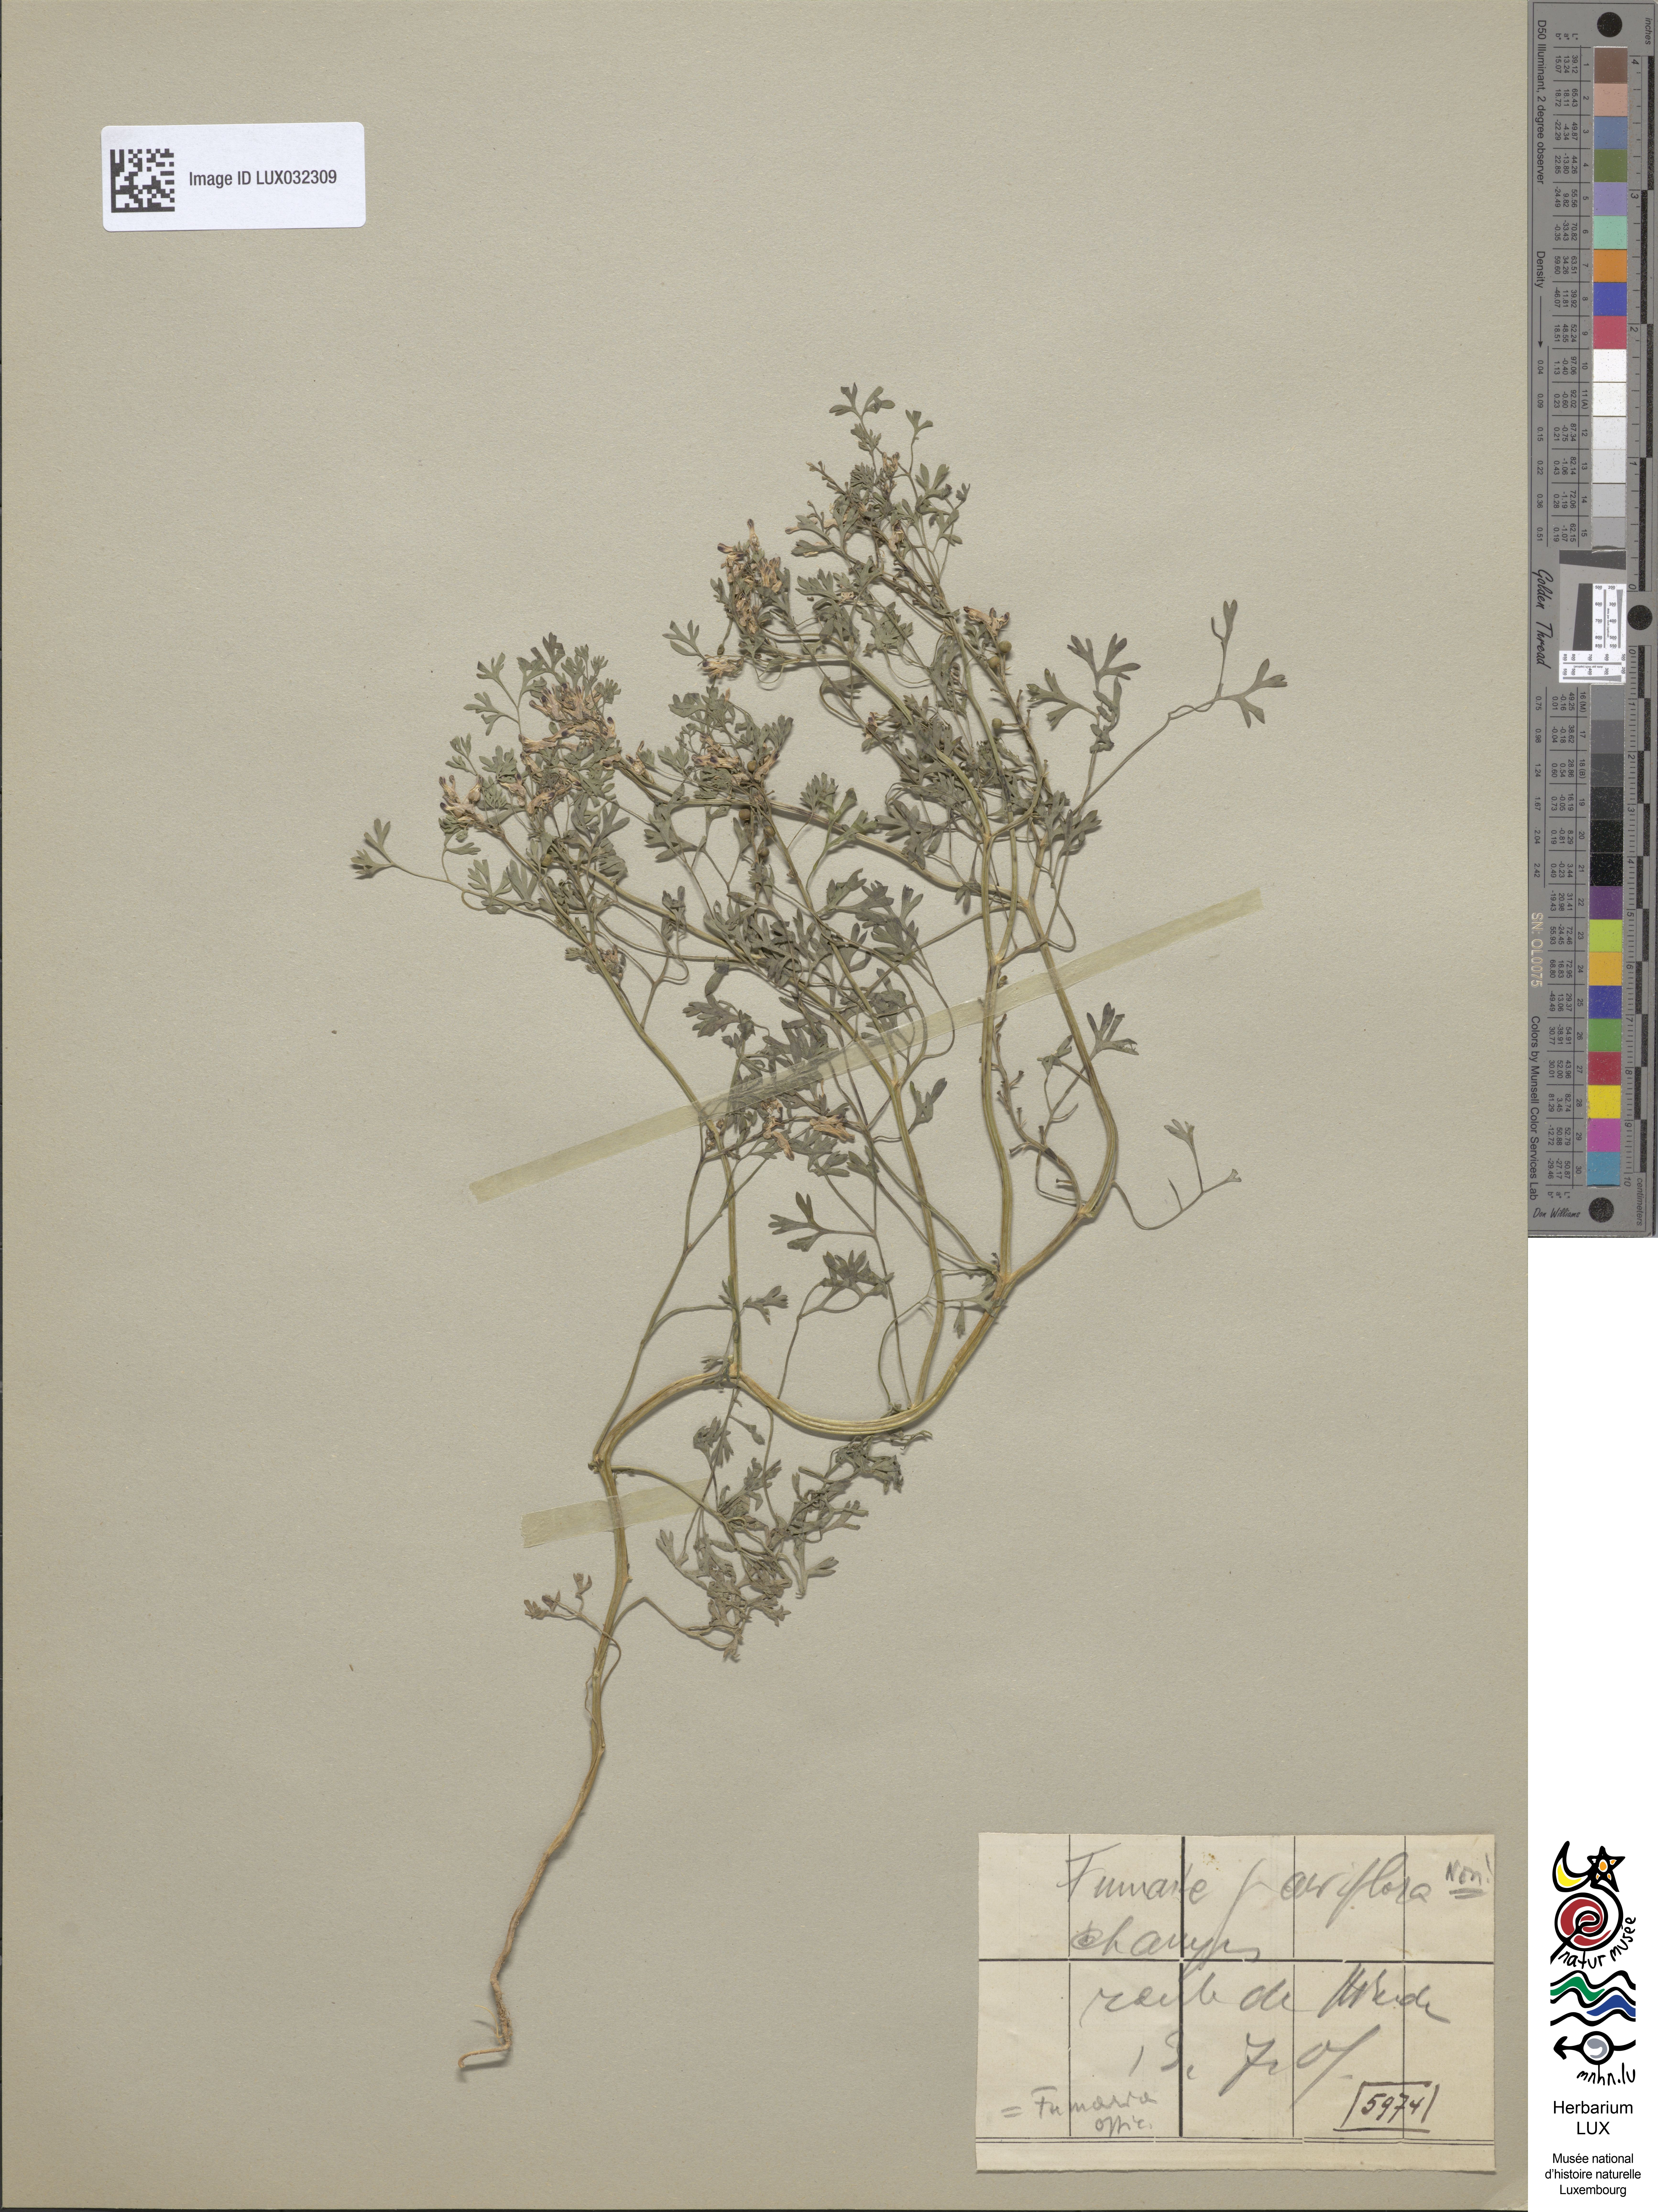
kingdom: Plantae
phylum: Tracheophyta
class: Magnoliopsida
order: Ranunculales
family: Papaveraceae
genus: Fumaria
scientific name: Fumaria officinalis
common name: Common fumitory
